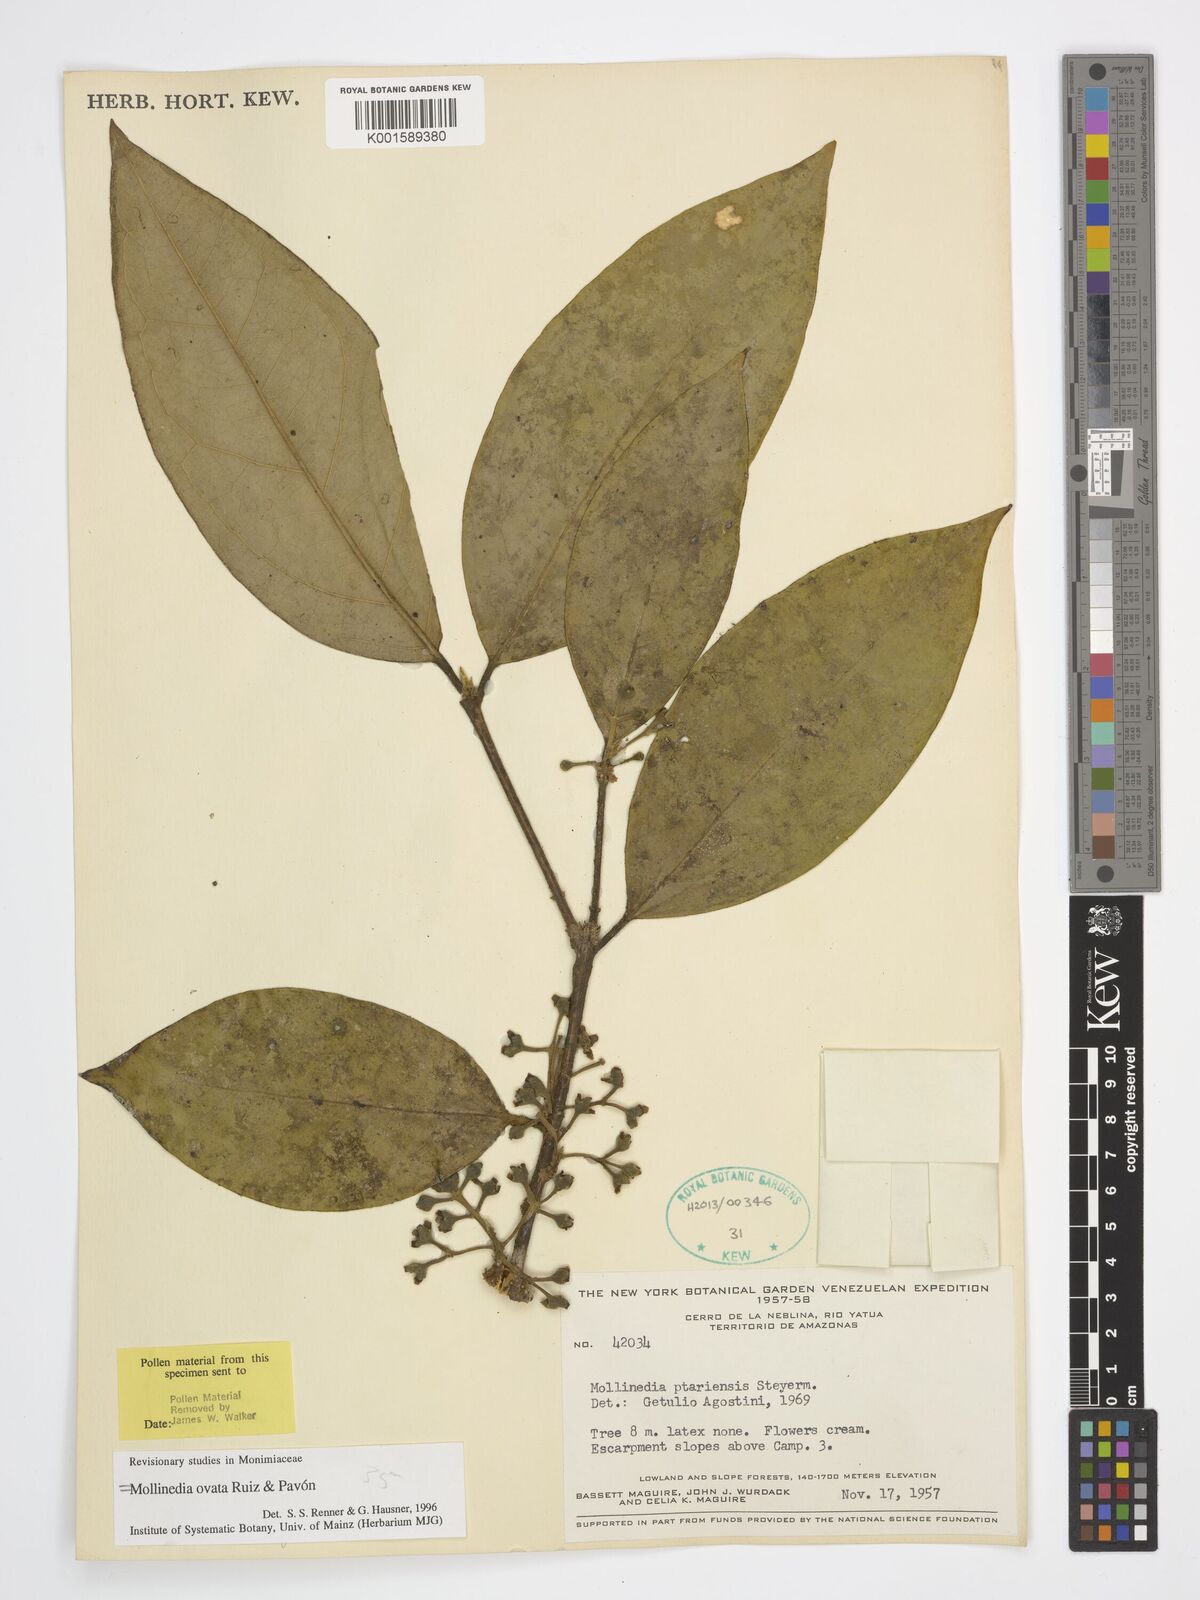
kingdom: Plantae
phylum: Tracheophyta
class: Magnoliopsida
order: Laurales
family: Monimiaceae
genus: Mollinedia
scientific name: Mollinedia ovata
